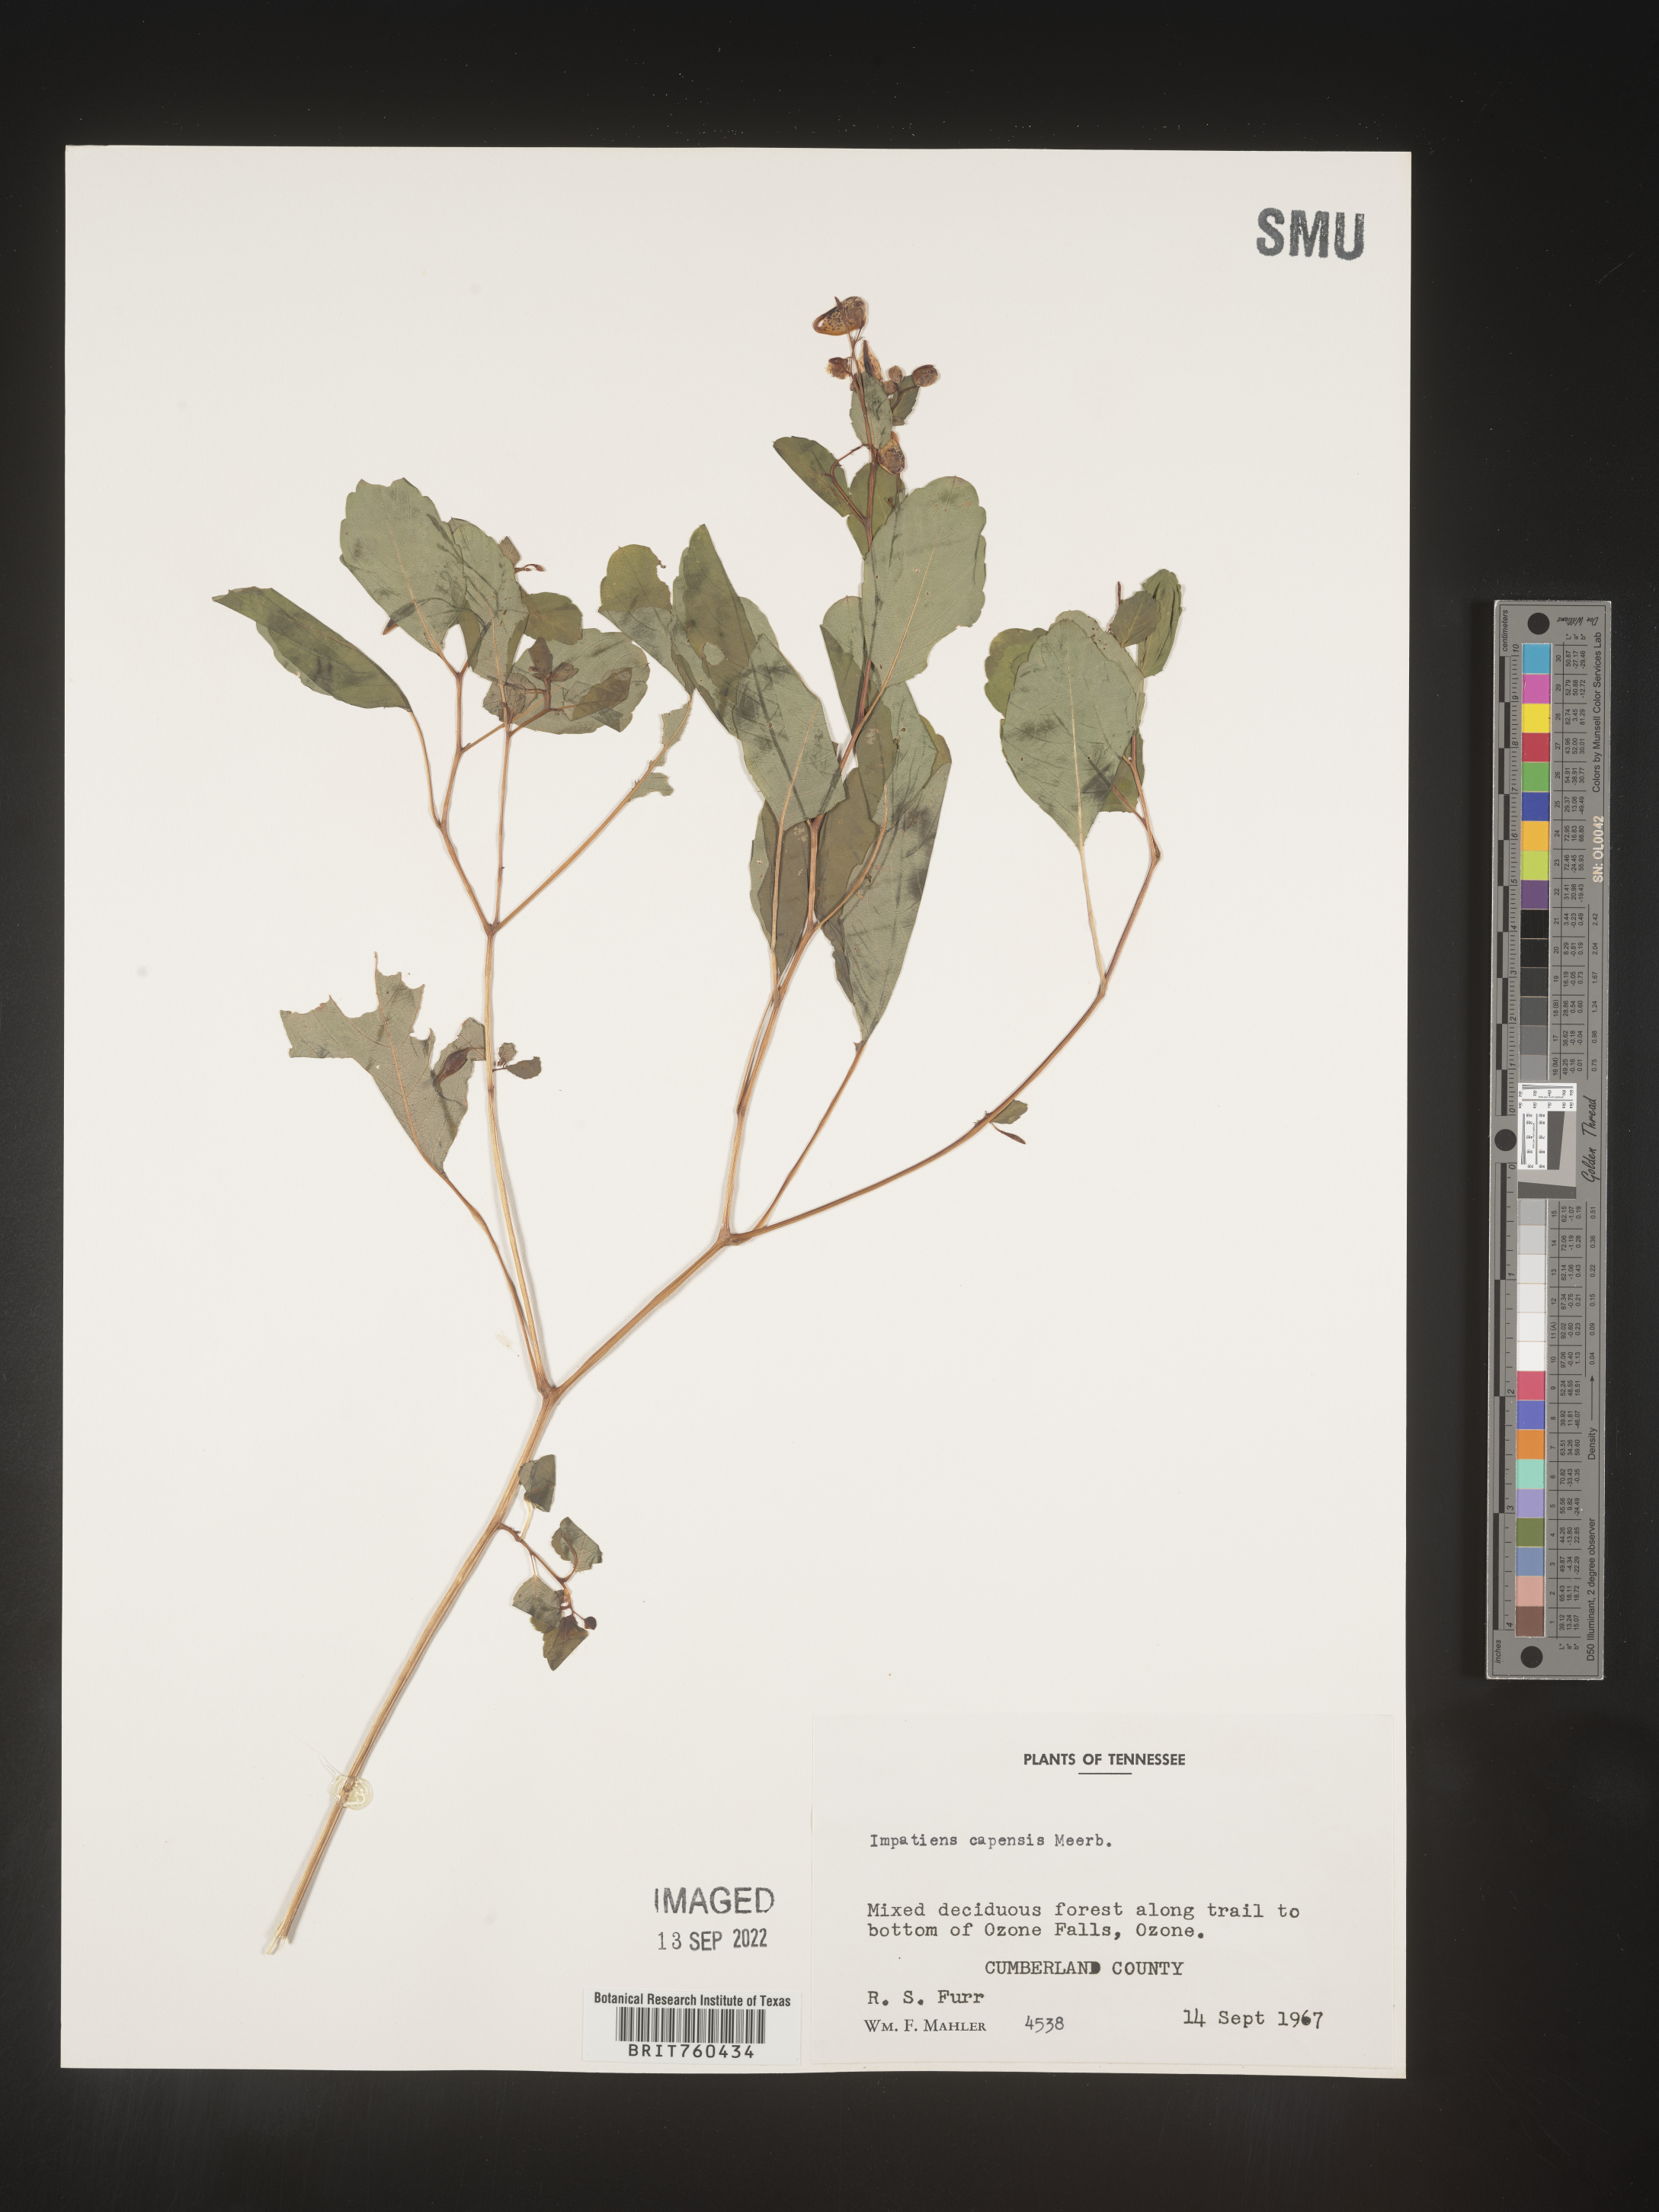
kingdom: Plantae
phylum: Tracheophyta
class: Magnoliopsida
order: Ericales
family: Balsaminaceae
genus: Impatiens
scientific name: Impatiens capensis
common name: Orange balsam
